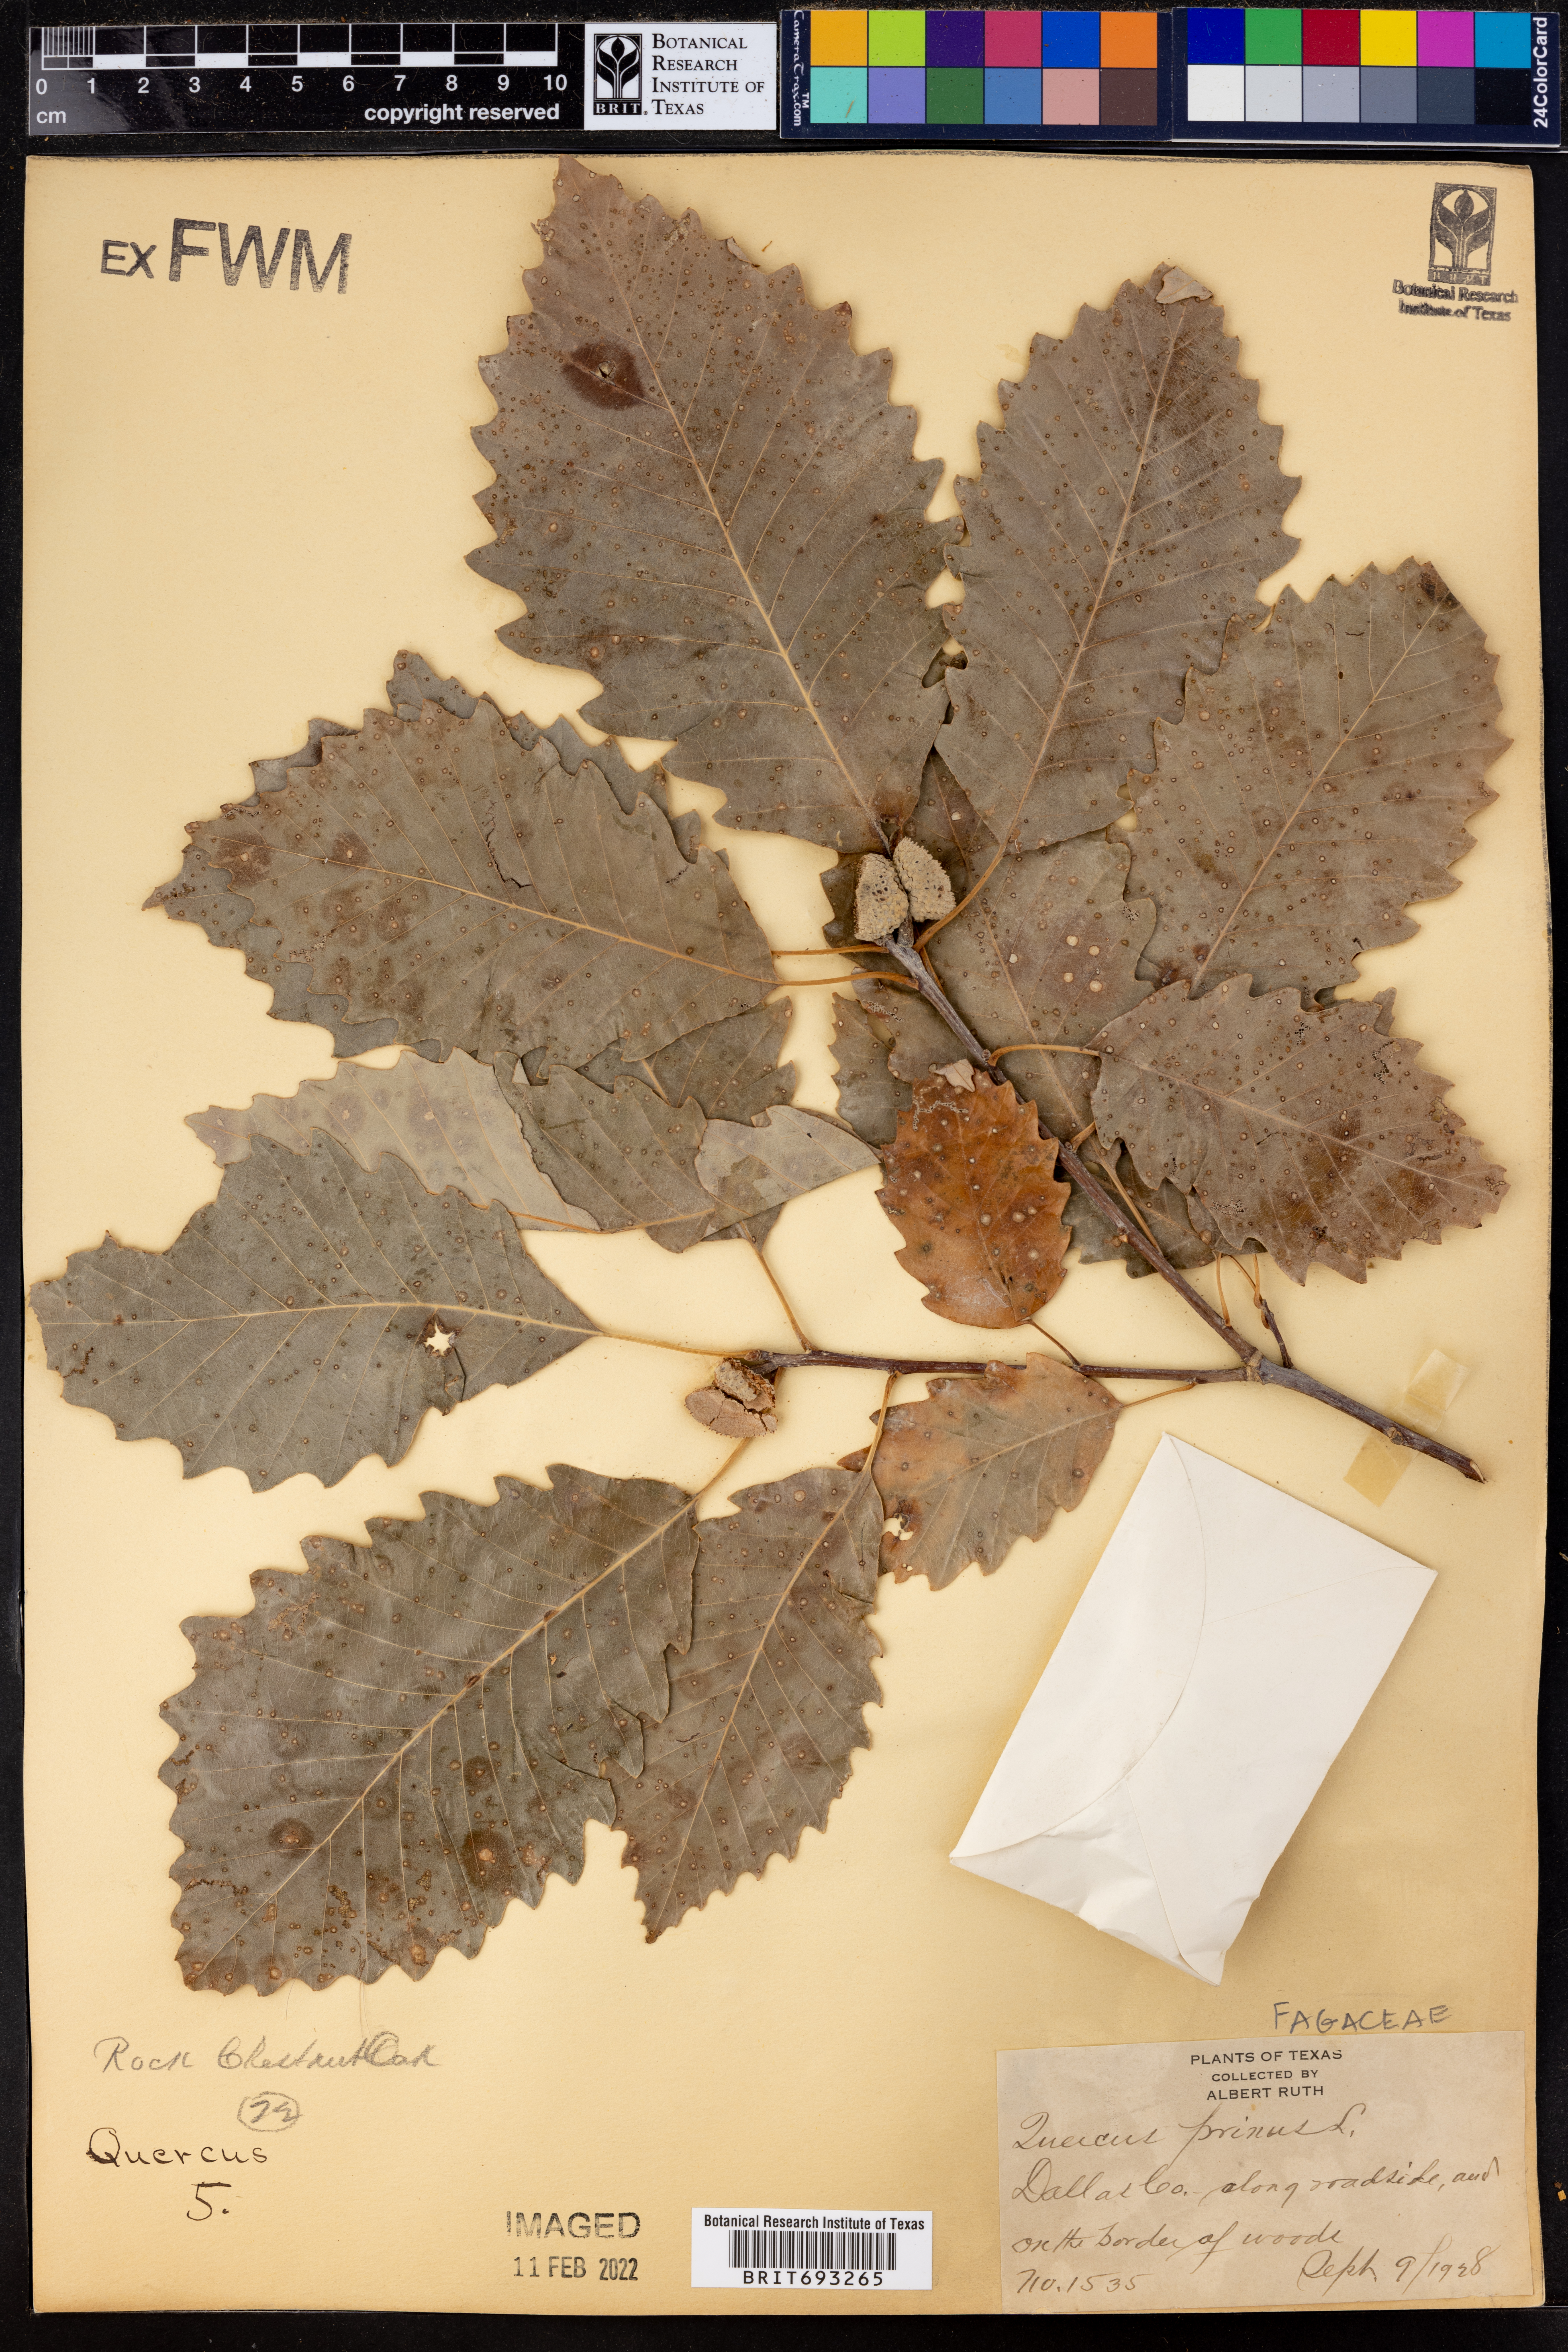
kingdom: Plantae
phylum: Tracheophyta
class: Magnoliopsida
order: Fagales
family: Fagaceae
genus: Quercus
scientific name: Quercus michauxii
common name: Swamp chestnut oak
